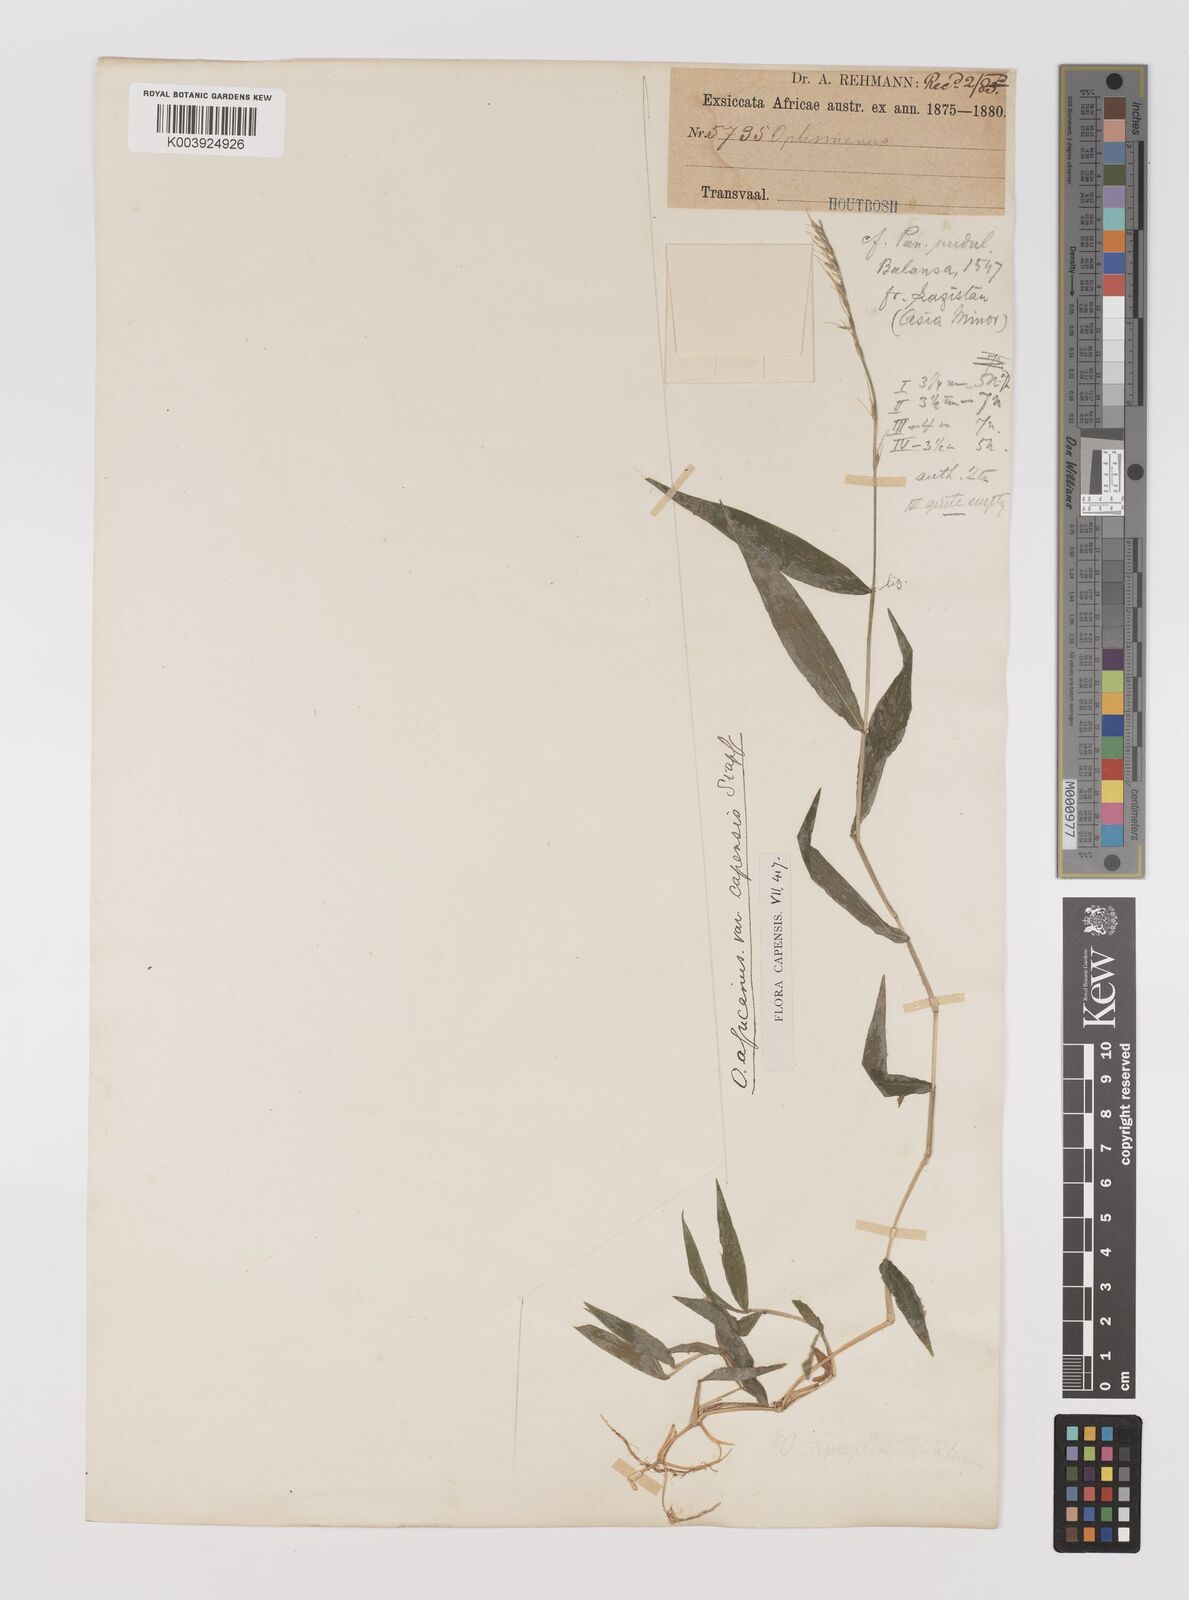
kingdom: Plantae
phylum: Tracheophyta
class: Liliopsida
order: Poales
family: Poaceae
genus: Oplismenus
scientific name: Oplismenus undulatifolius
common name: Wavyleaf basketgrass
